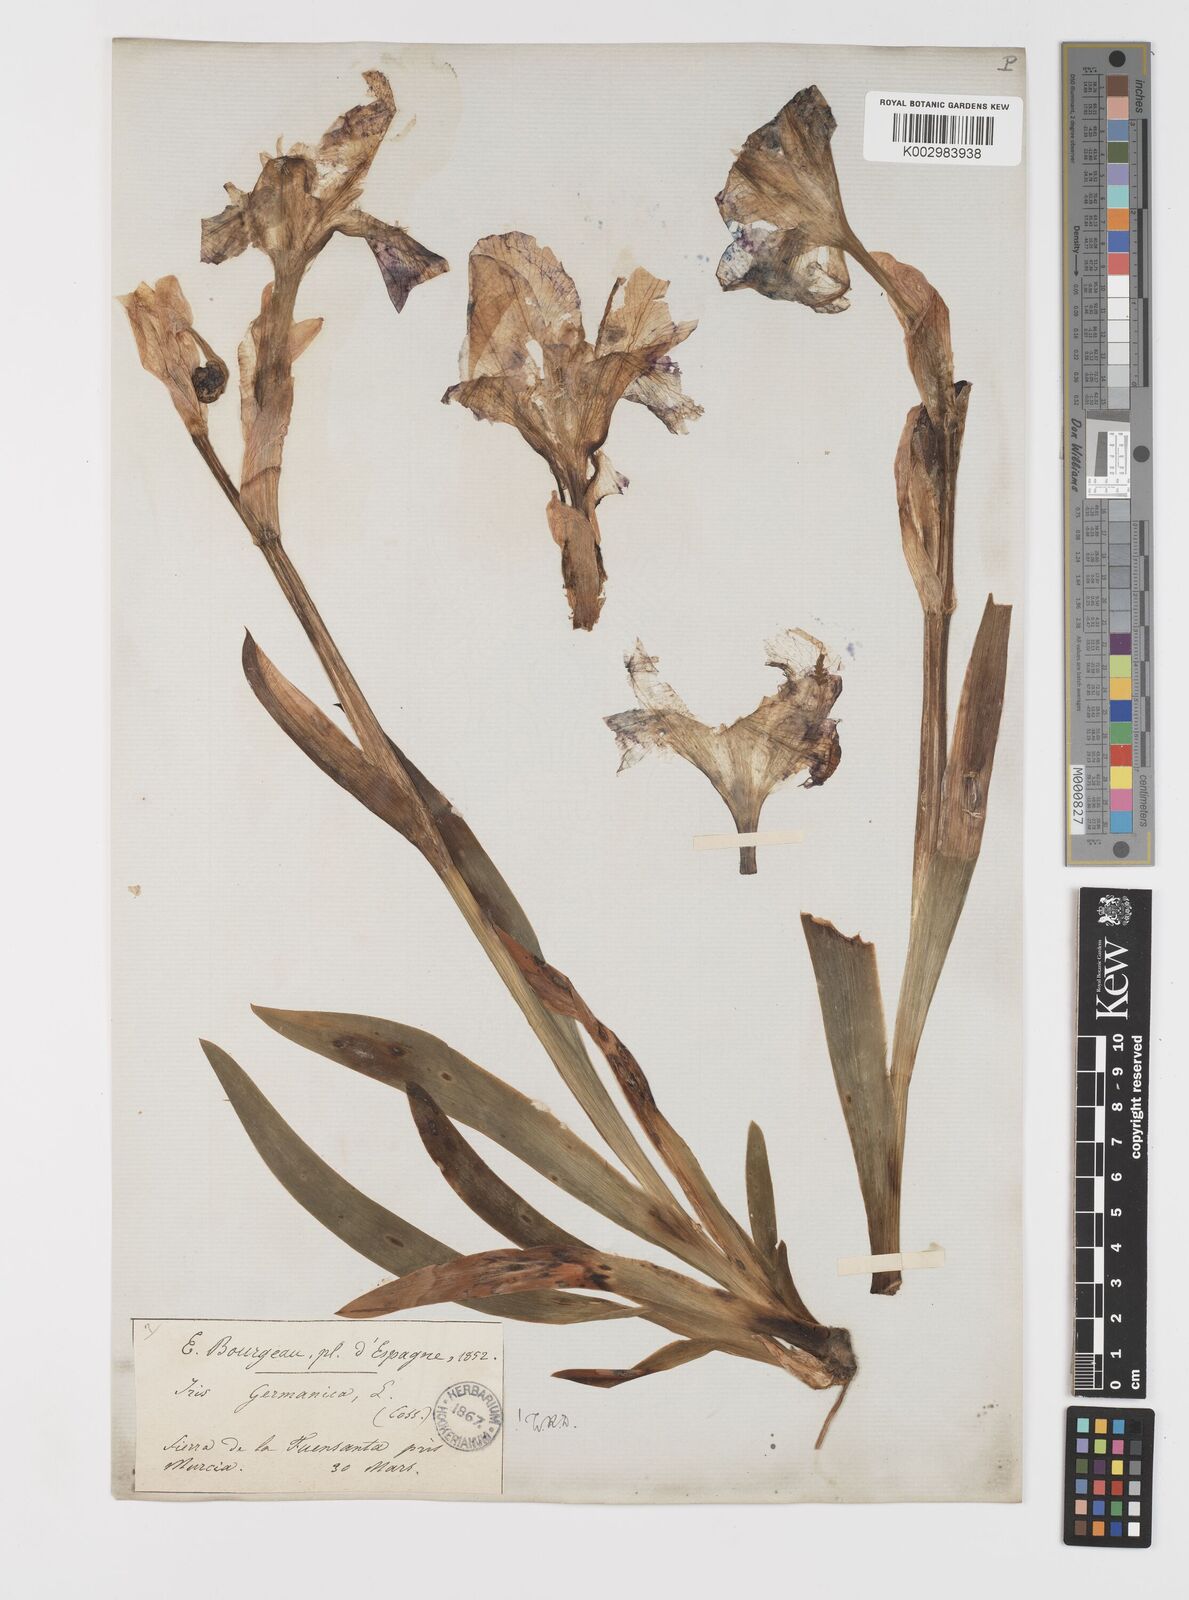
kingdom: Plantae
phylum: Tracheophyta
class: Liliopsida
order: Asparagales
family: Iridaceae
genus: Iris
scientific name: Iris germanica
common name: German iris
